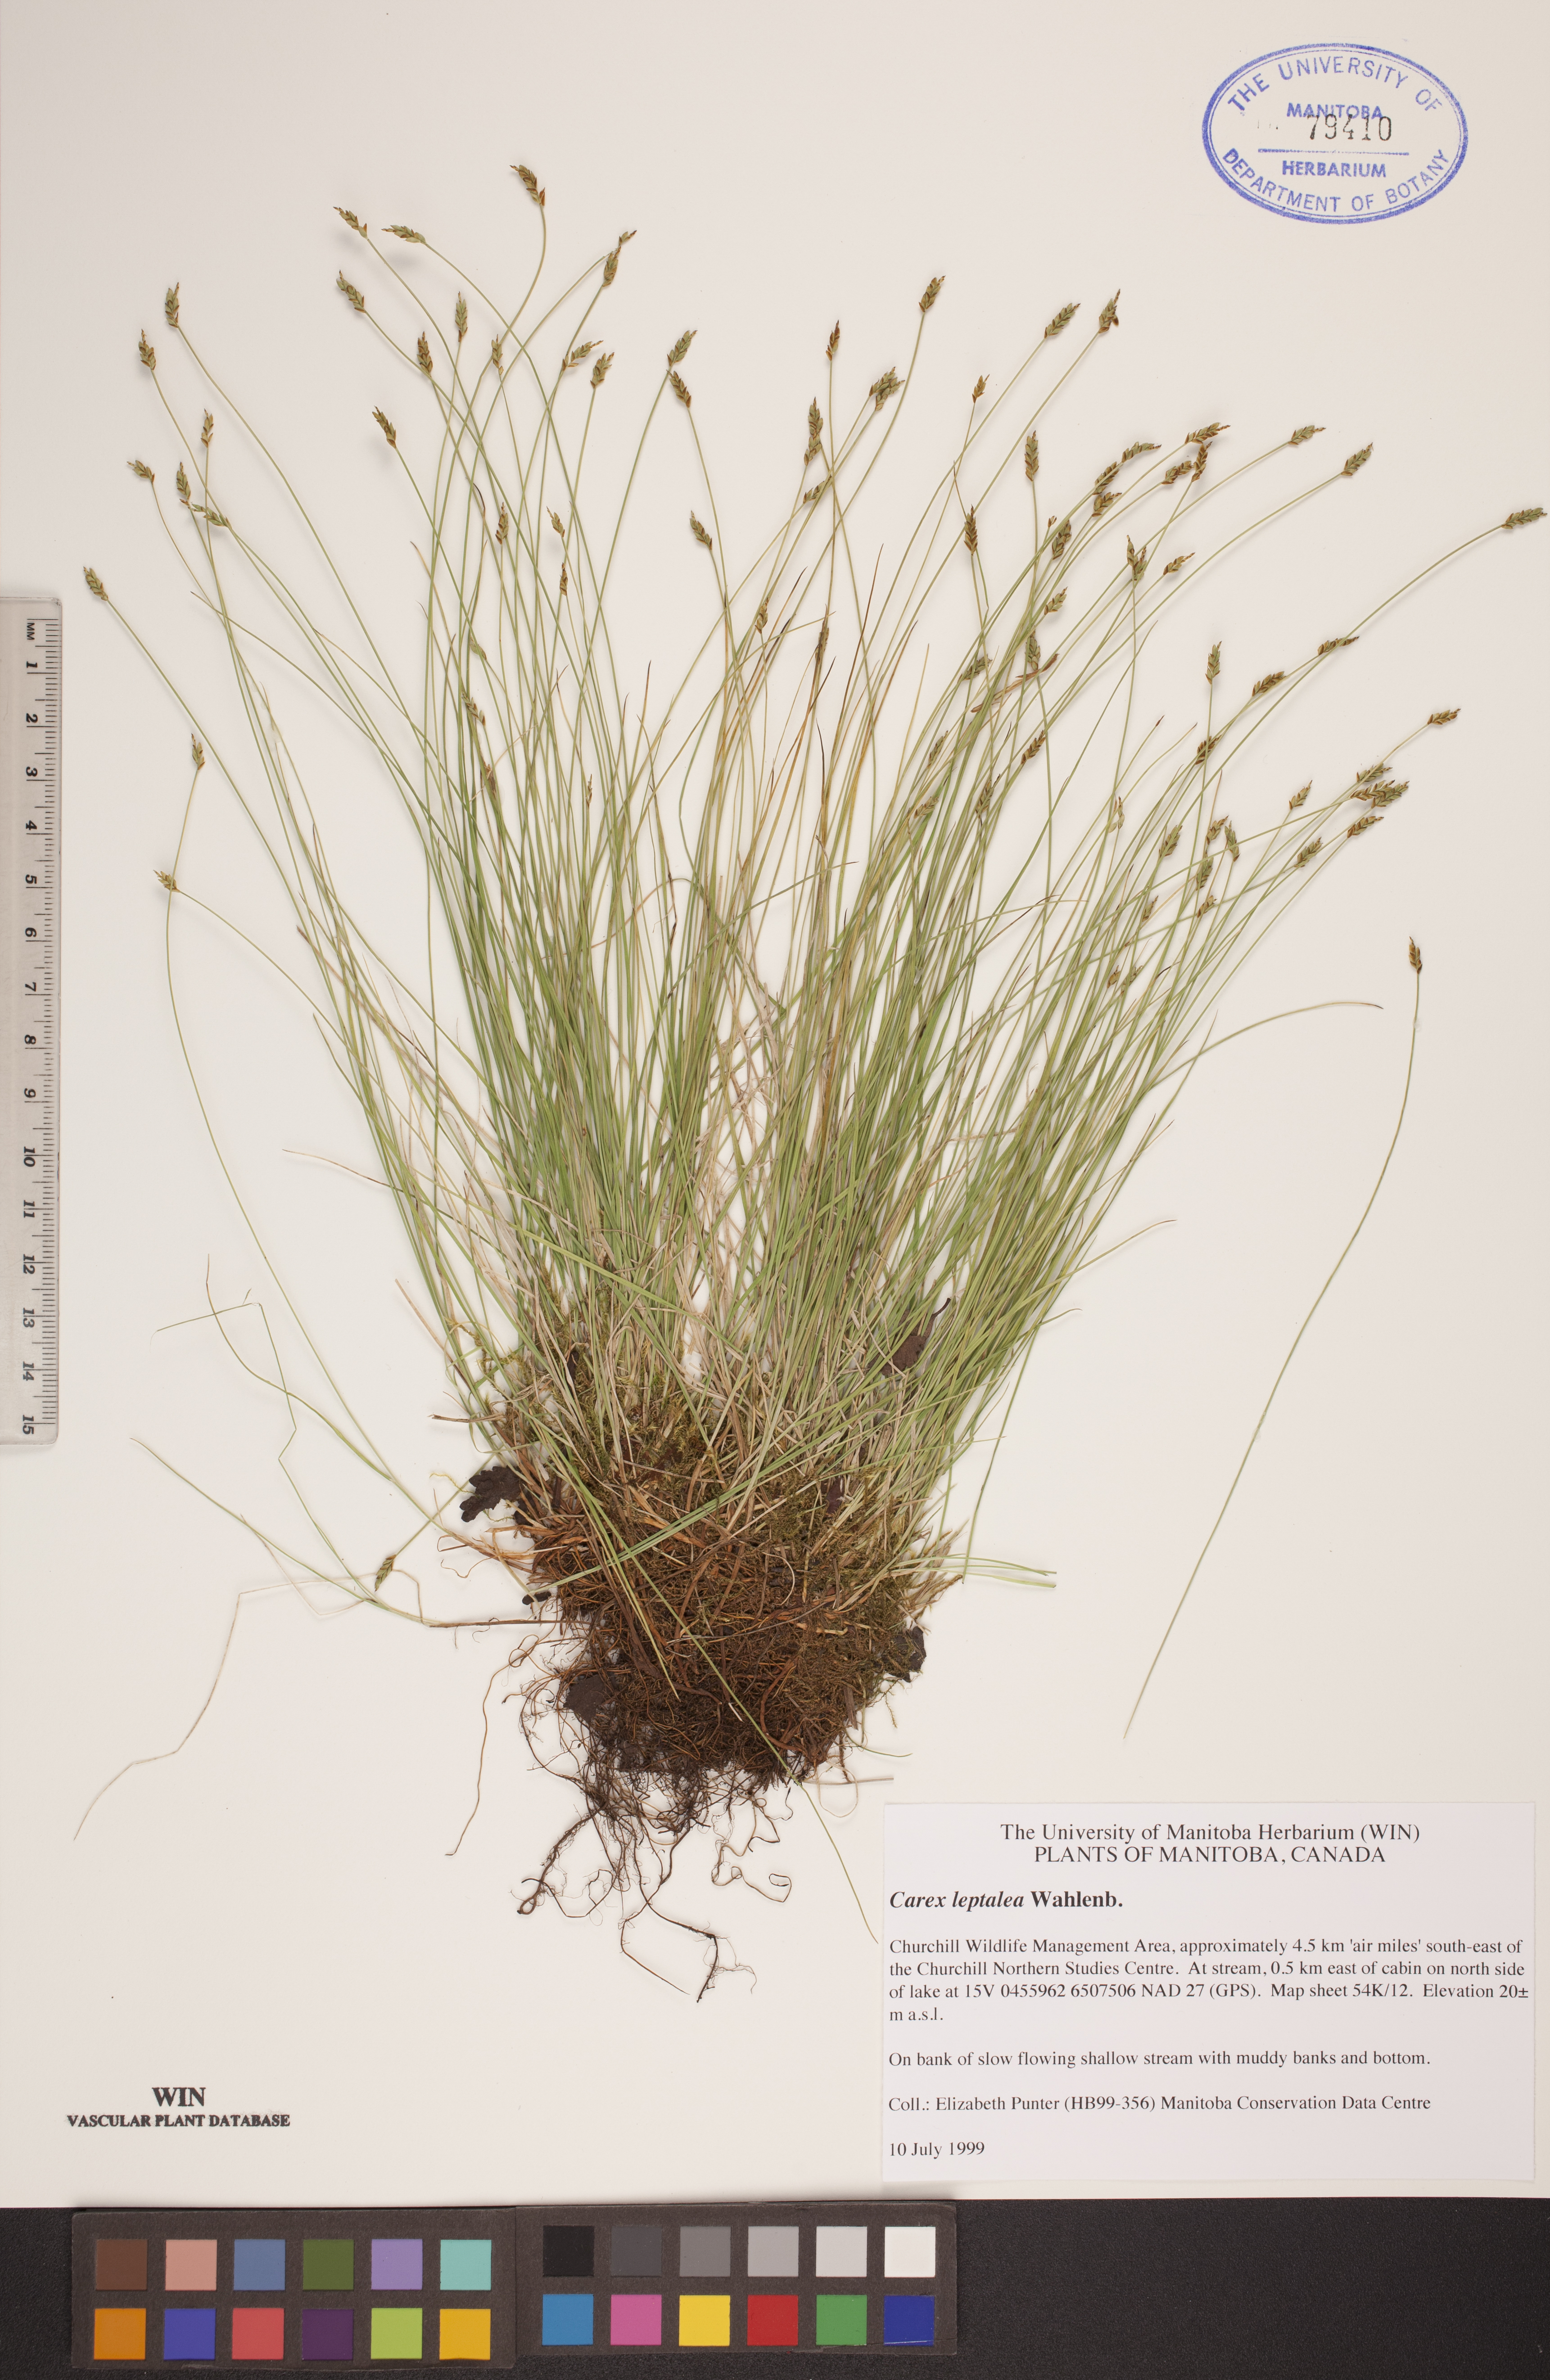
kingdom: Plantae
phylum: Tracheophyta
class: Liliopsida
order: Poales
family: Cyperaceae
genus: Carex
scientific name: Carex leptalea
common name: Bristly-stalked sedge
